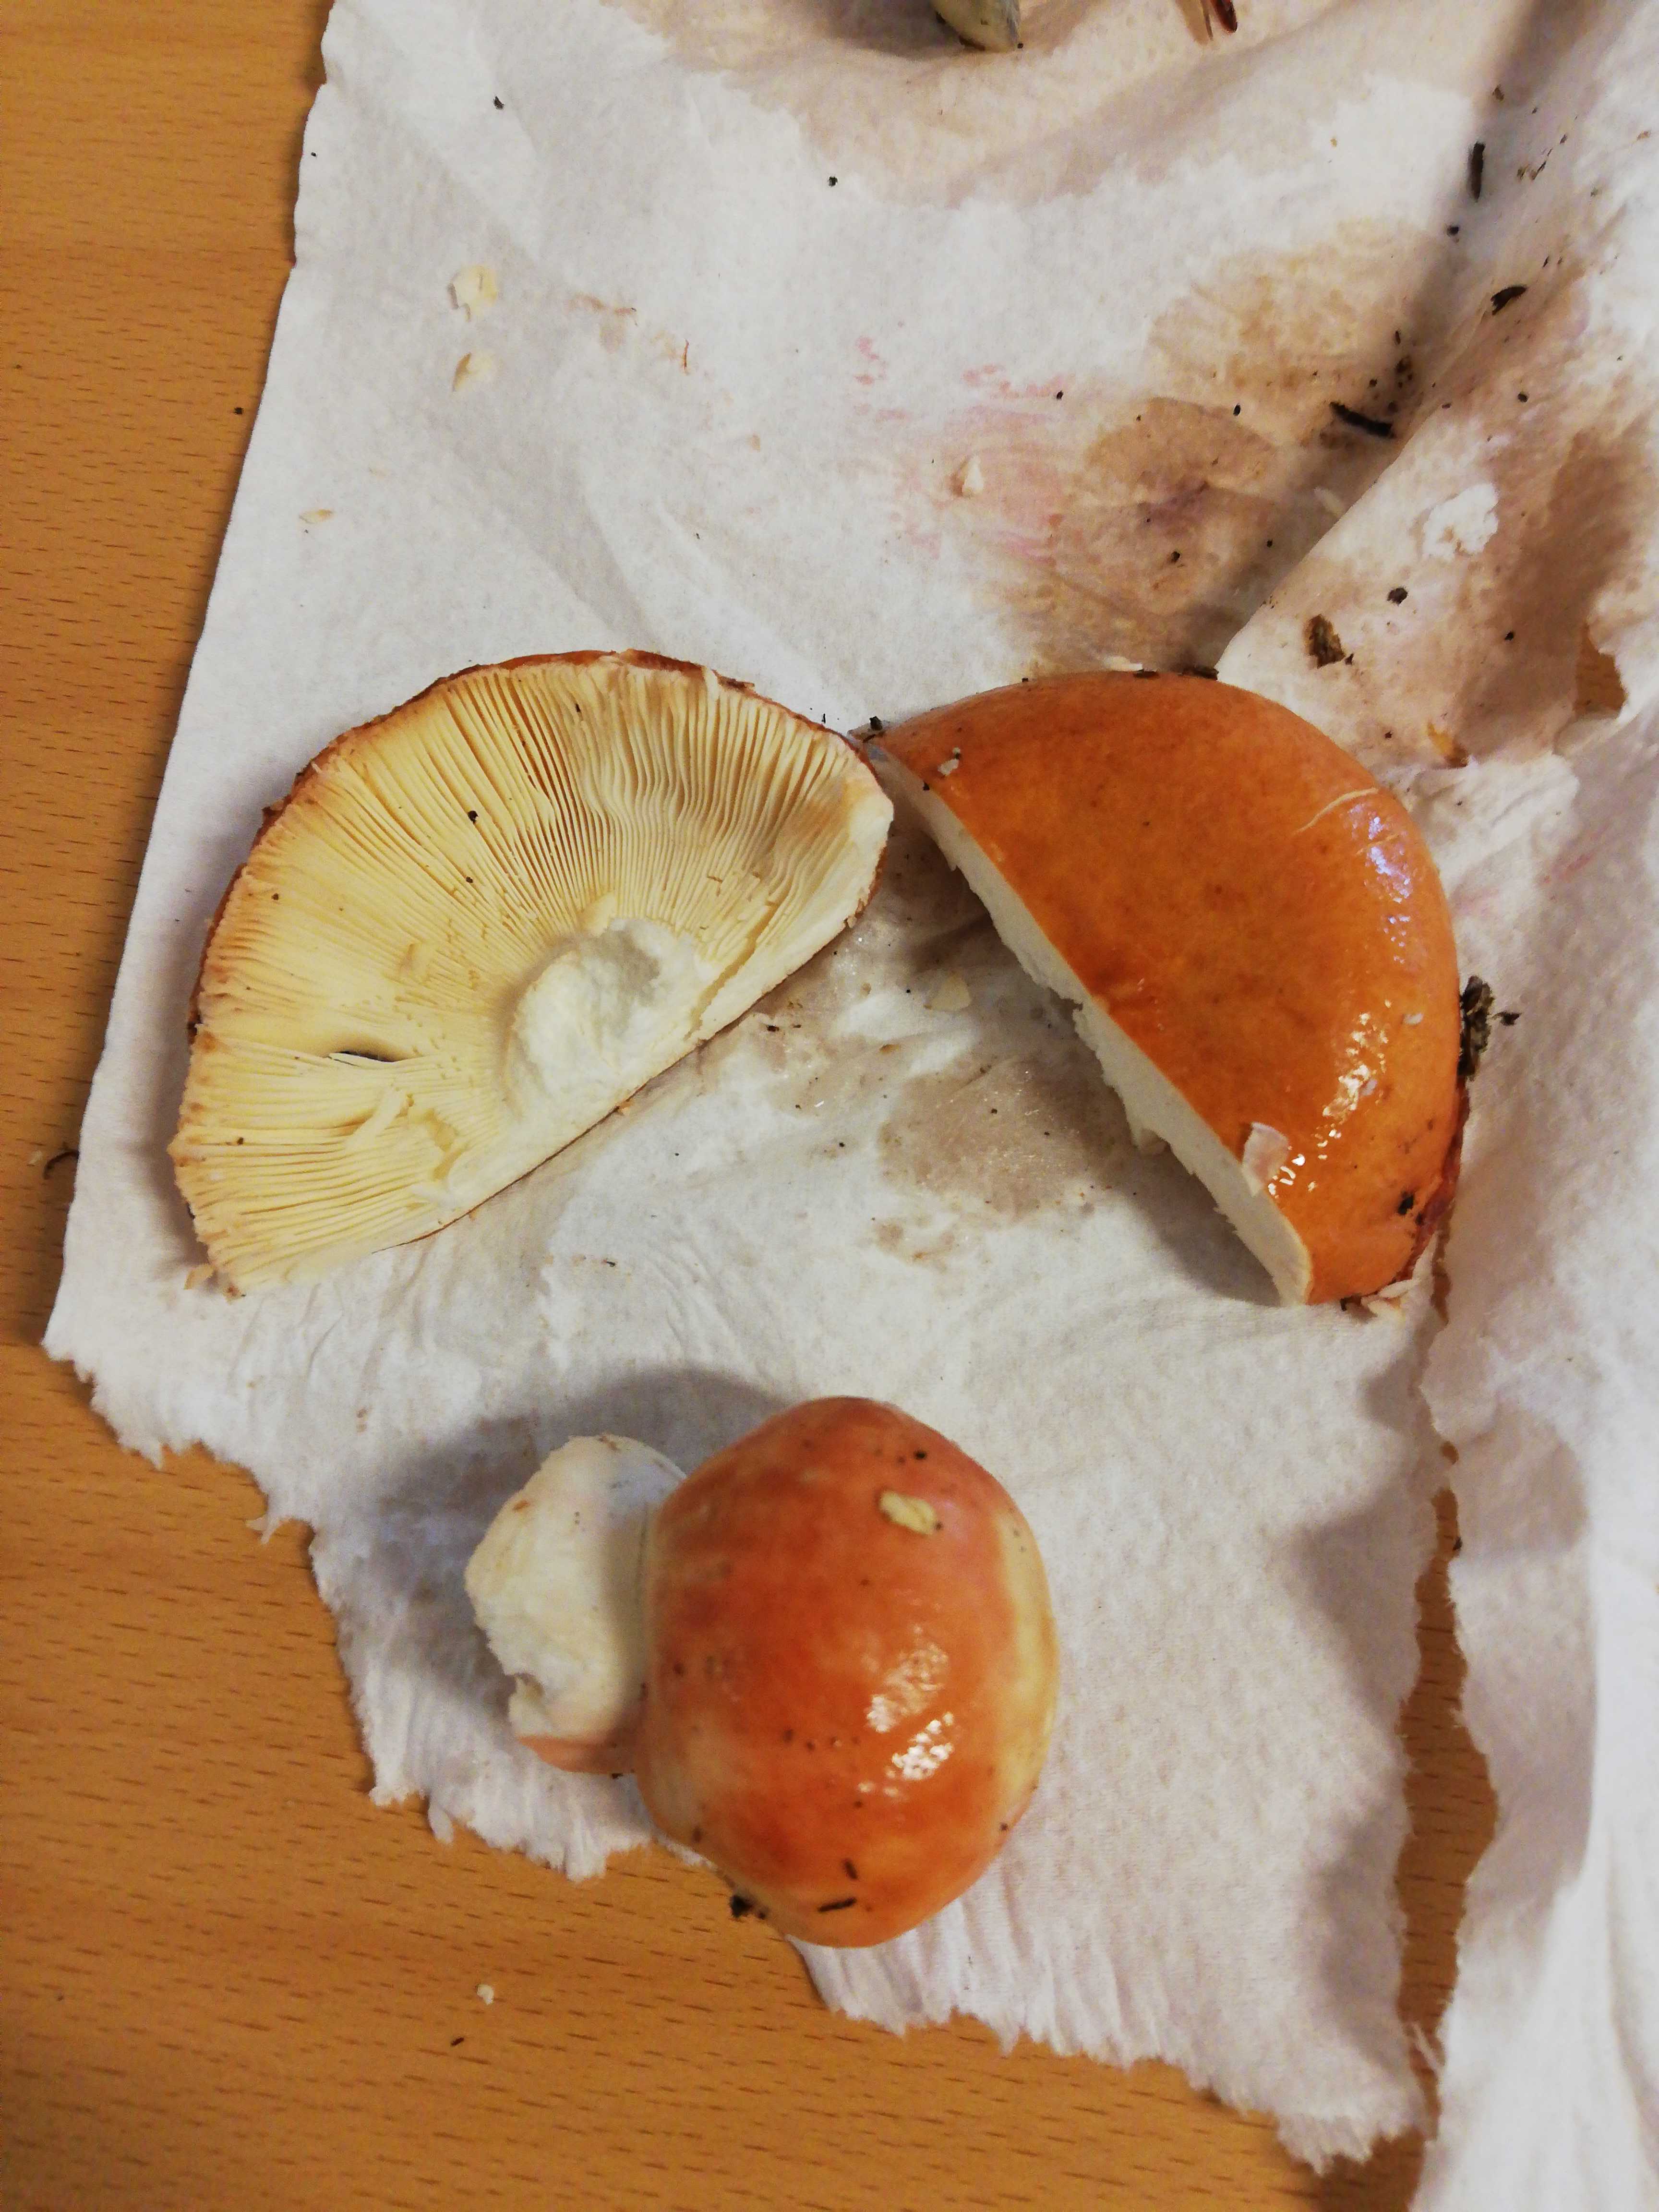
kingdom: Fungi
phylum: Basidiomycota
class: Agaricomycetes
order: Russulales
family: Russulaceae
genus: Russula
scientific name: Russula
